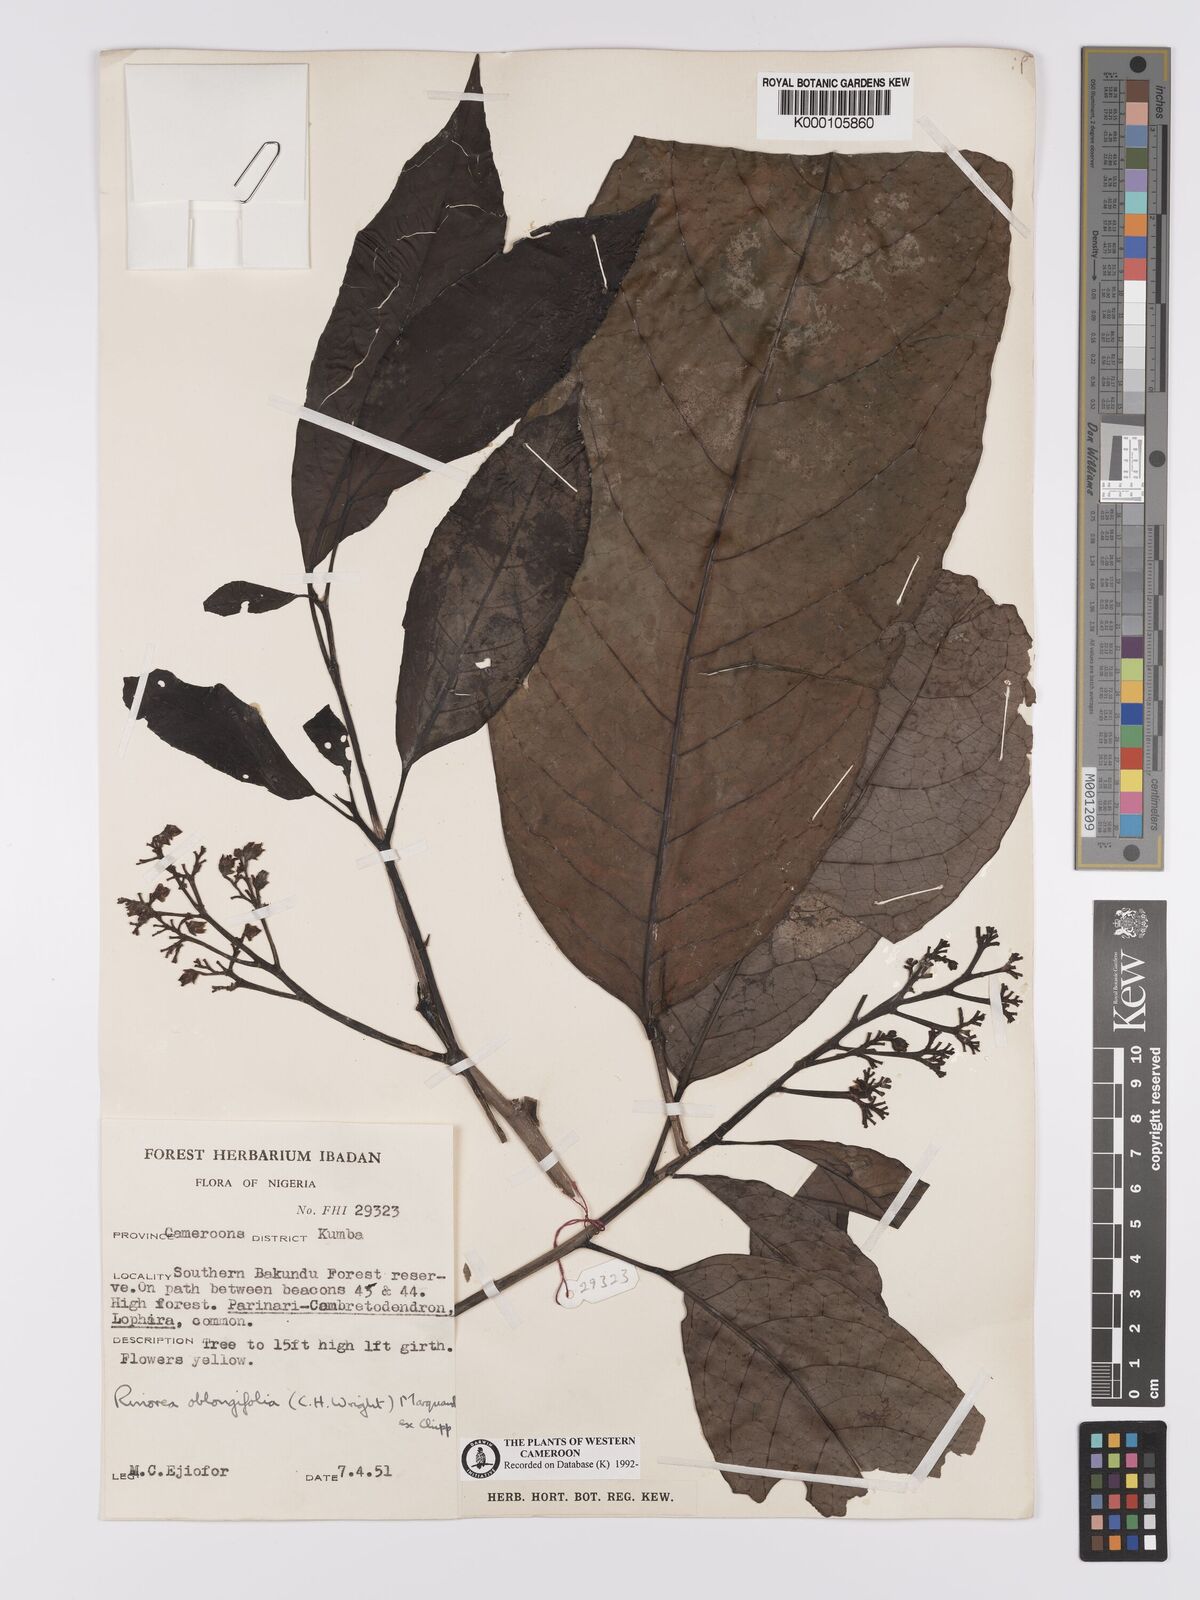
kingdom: Plantae
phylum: Tracheophyta
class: Magnoliopsida
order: Apiales
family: Pittosporaceae
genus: Marianthus
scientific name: Marianthus coeruleopunctatus
